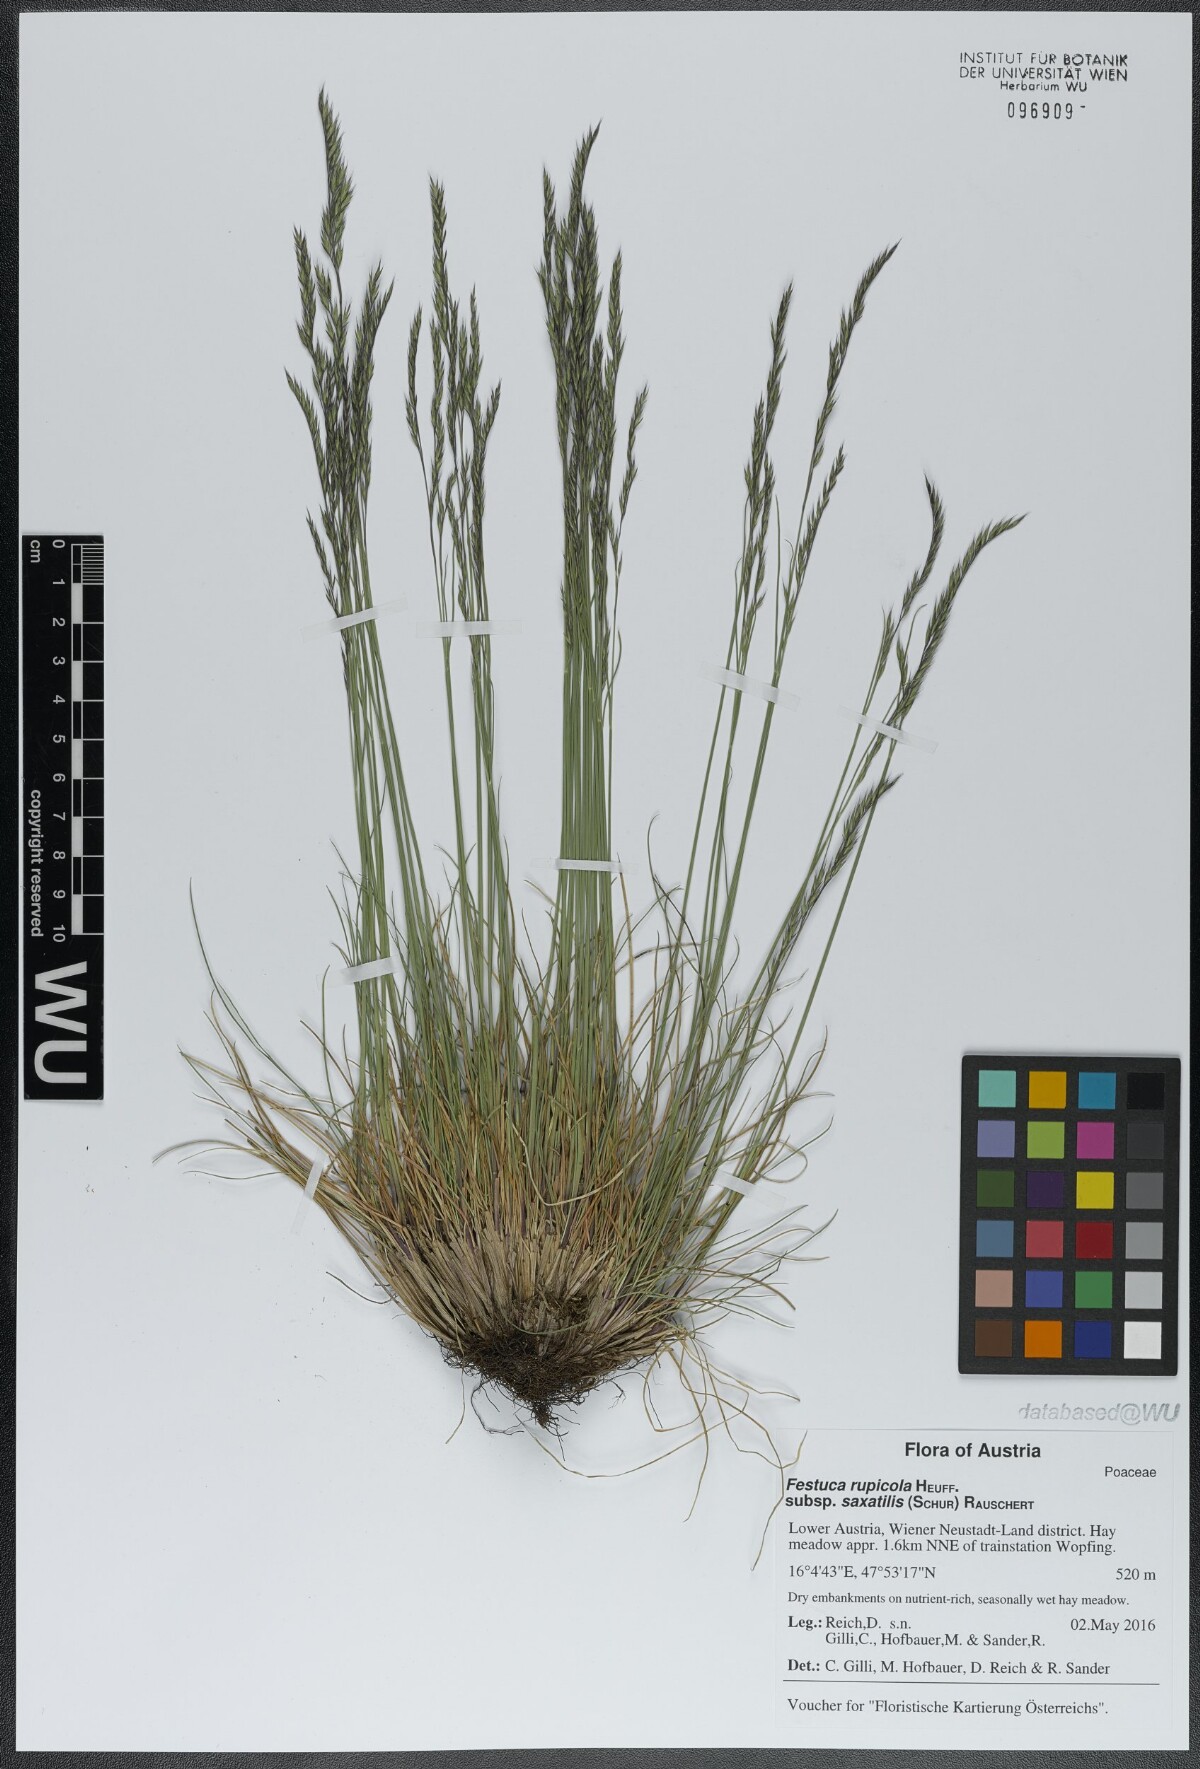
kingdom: Plantae
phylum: Tracheophyta
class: Liliopsida
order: Poales
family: Poaceae
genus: Festuca
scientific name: Festuca saxatilis
